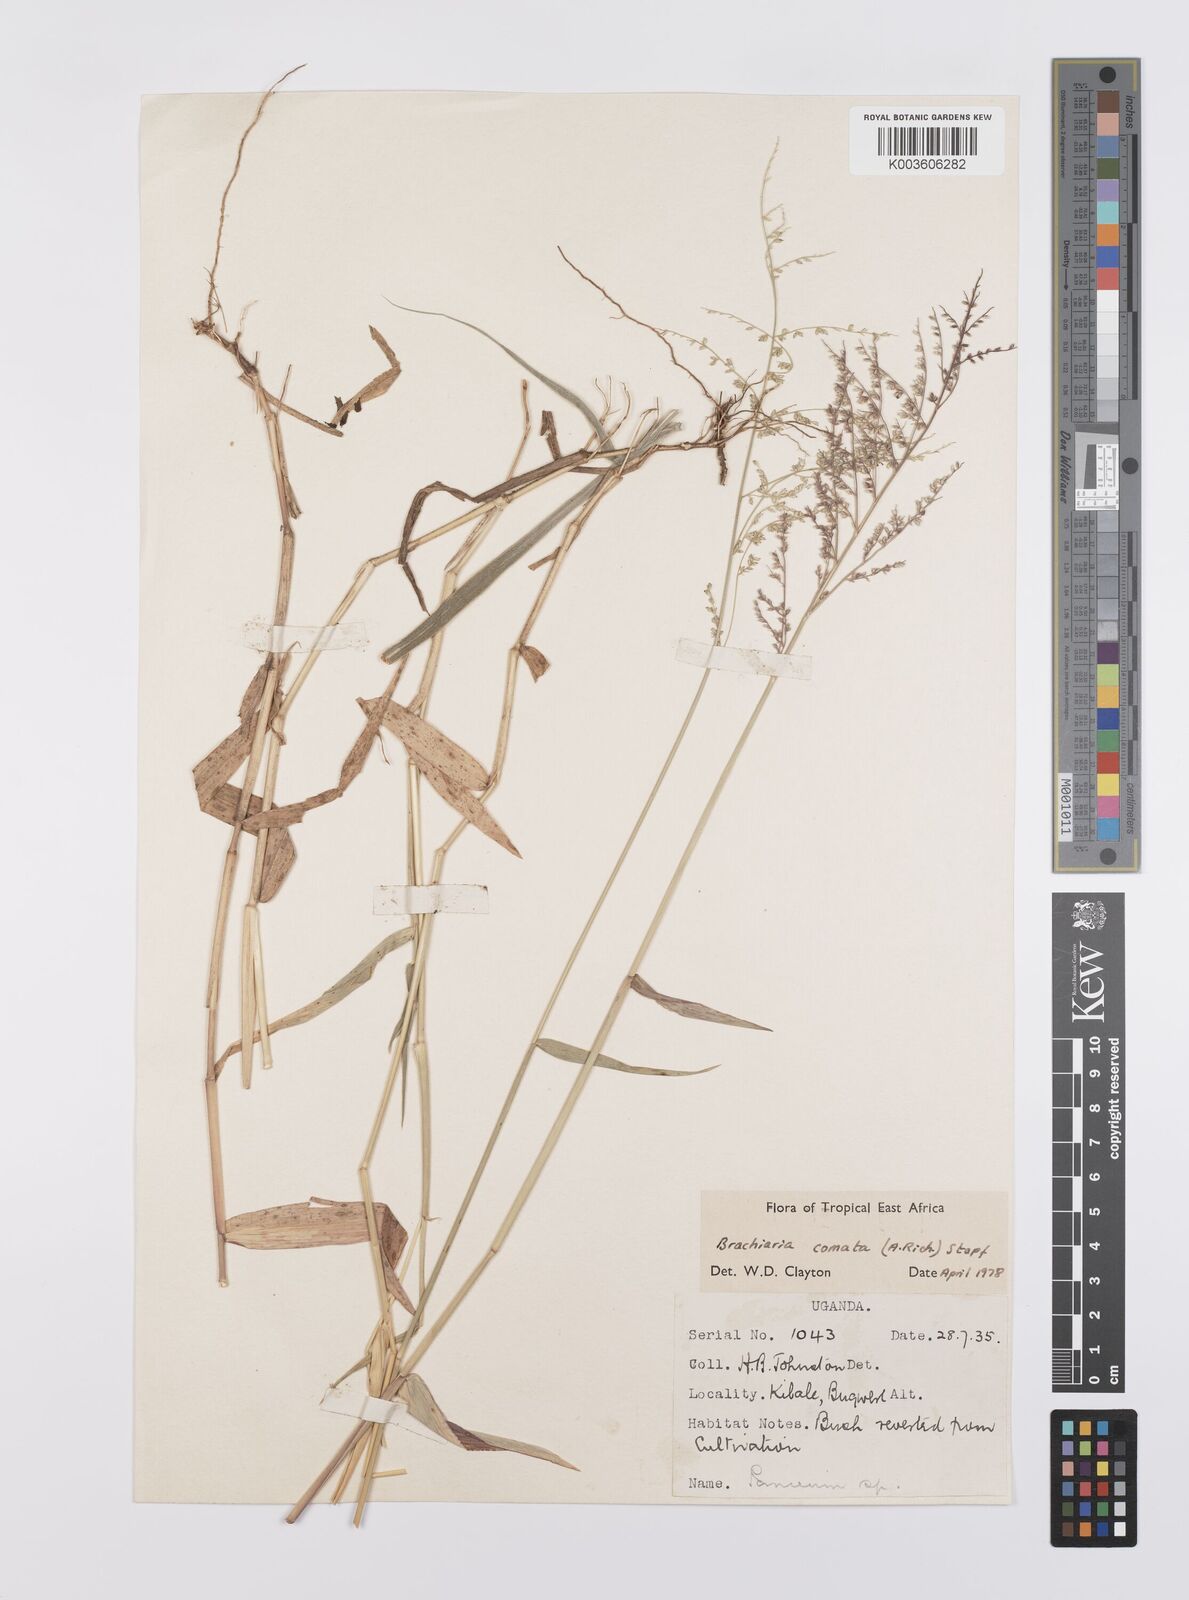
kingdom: Plantae
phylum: Tracheophyta
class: Liliopsida
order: Poales
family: Poaceae
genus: Urochloa
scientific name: Urochloa comata
